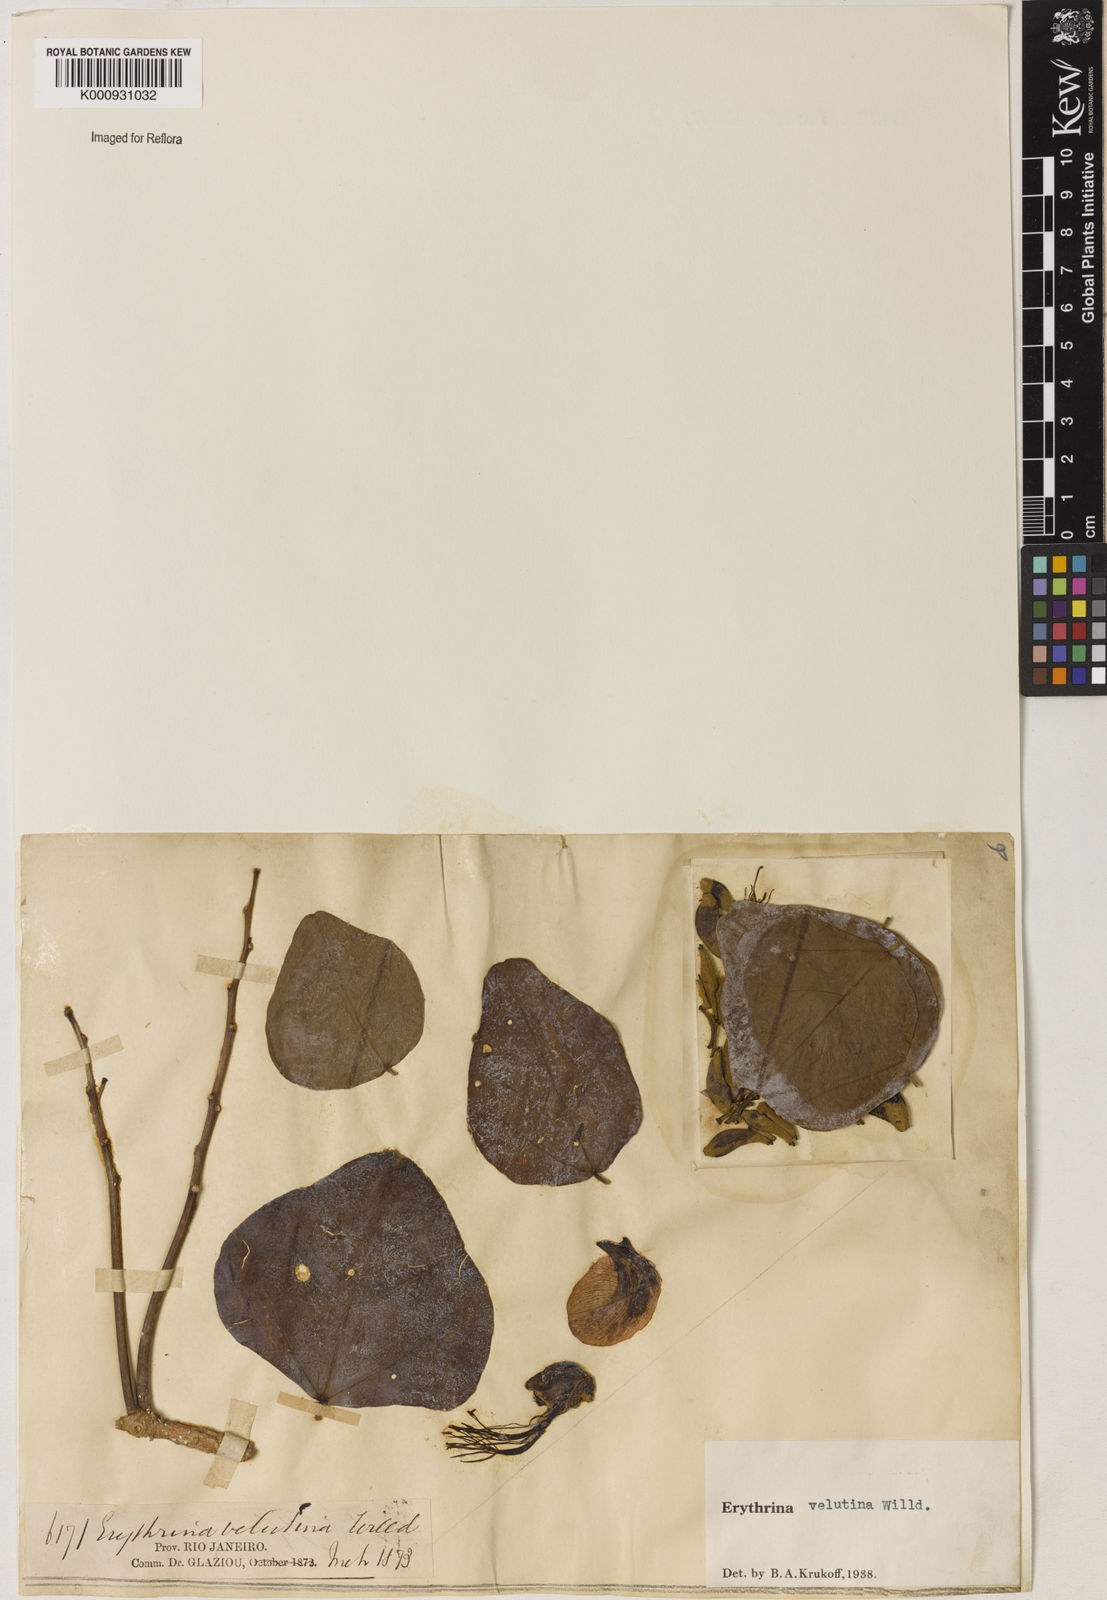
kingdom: Plantae
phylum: Tracheophyta
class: Magnoliopsida
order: Fabales
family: Fabaceae
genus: Erythrina
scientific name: Erythrina velutina
